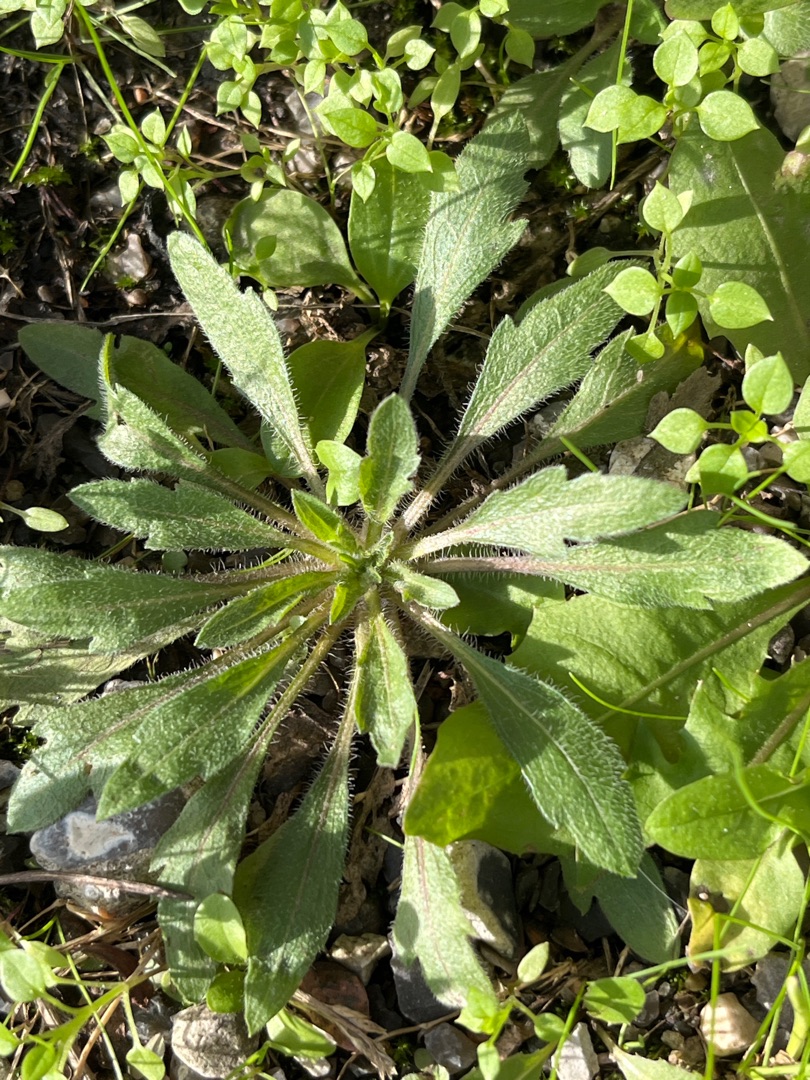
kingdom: Plantae
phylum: Tracheophyta
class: Magnoliopsida
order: Asterales
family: Asteraceae
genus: Erigeron
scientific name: Erigeron canadensis
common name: Kanadisk bakkestjerne
